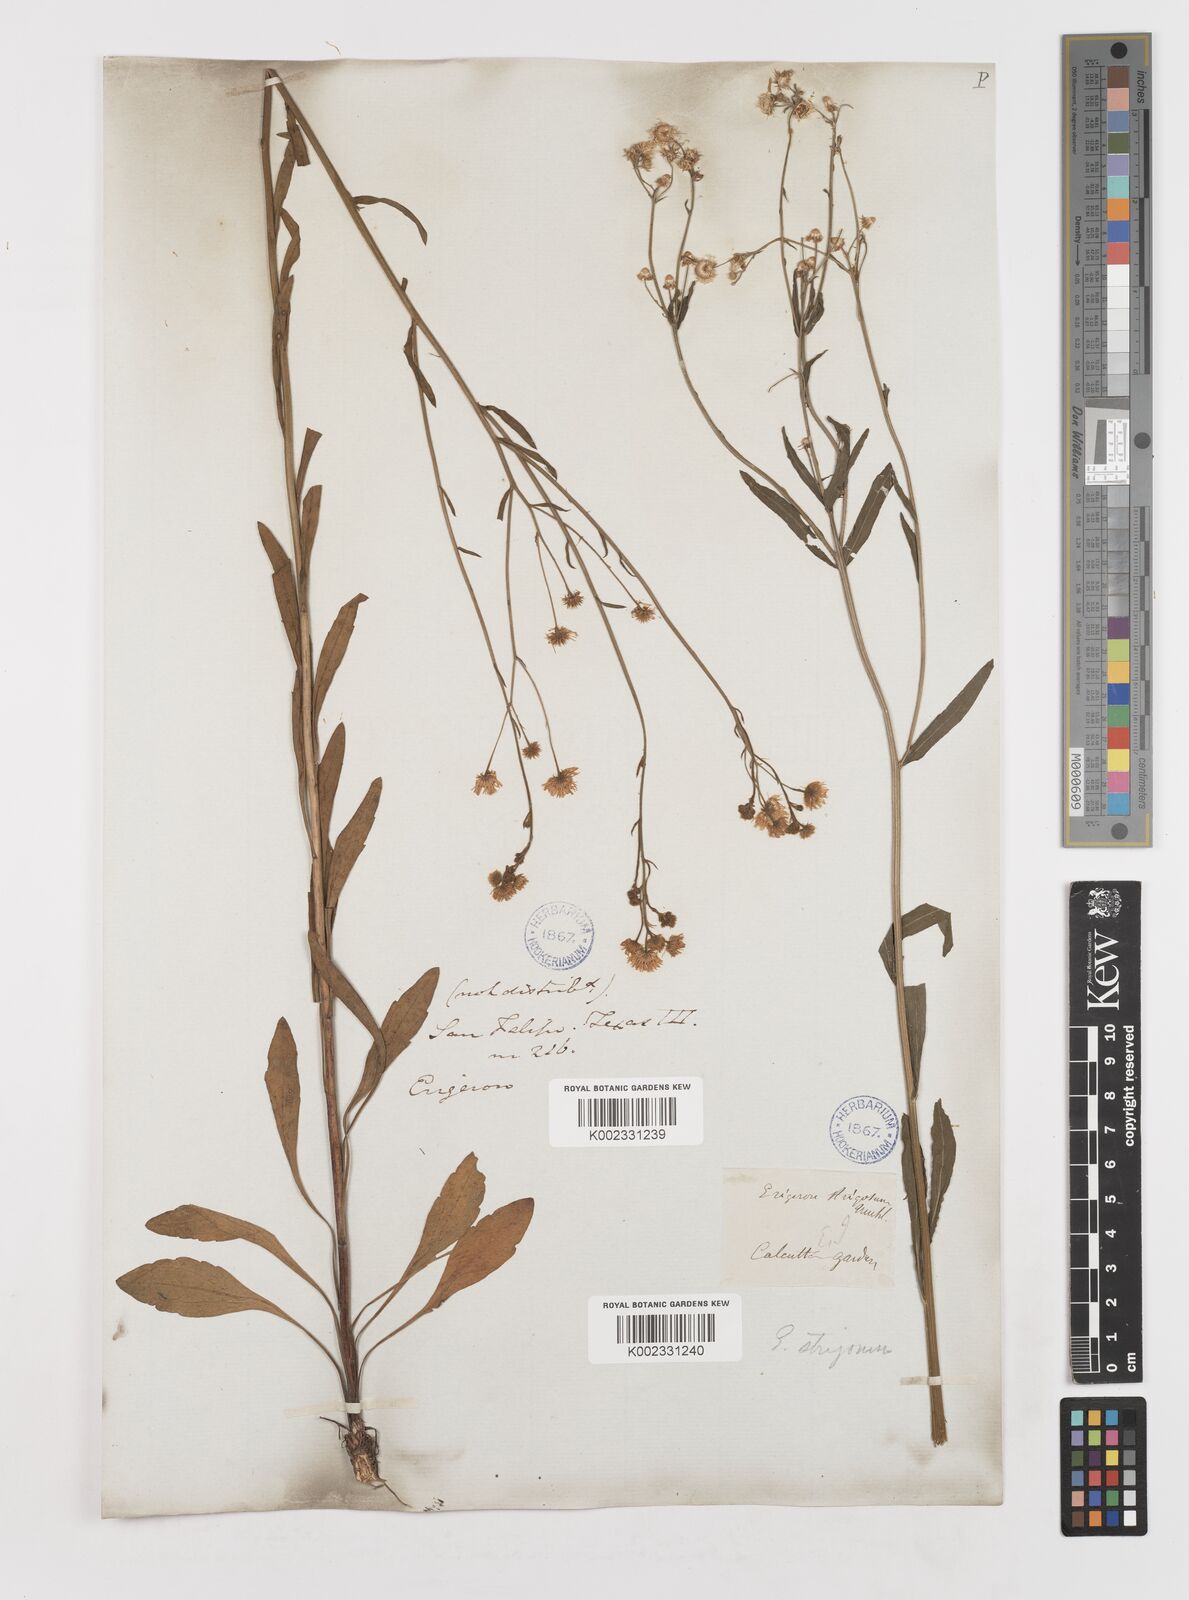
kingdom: Plantae
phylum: Tracheophyta
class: Magnoliopsida
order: Asterales
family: Asteraceae
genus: Erigeron
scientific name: Erigeron strigosus
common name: Common eastern fleabane
